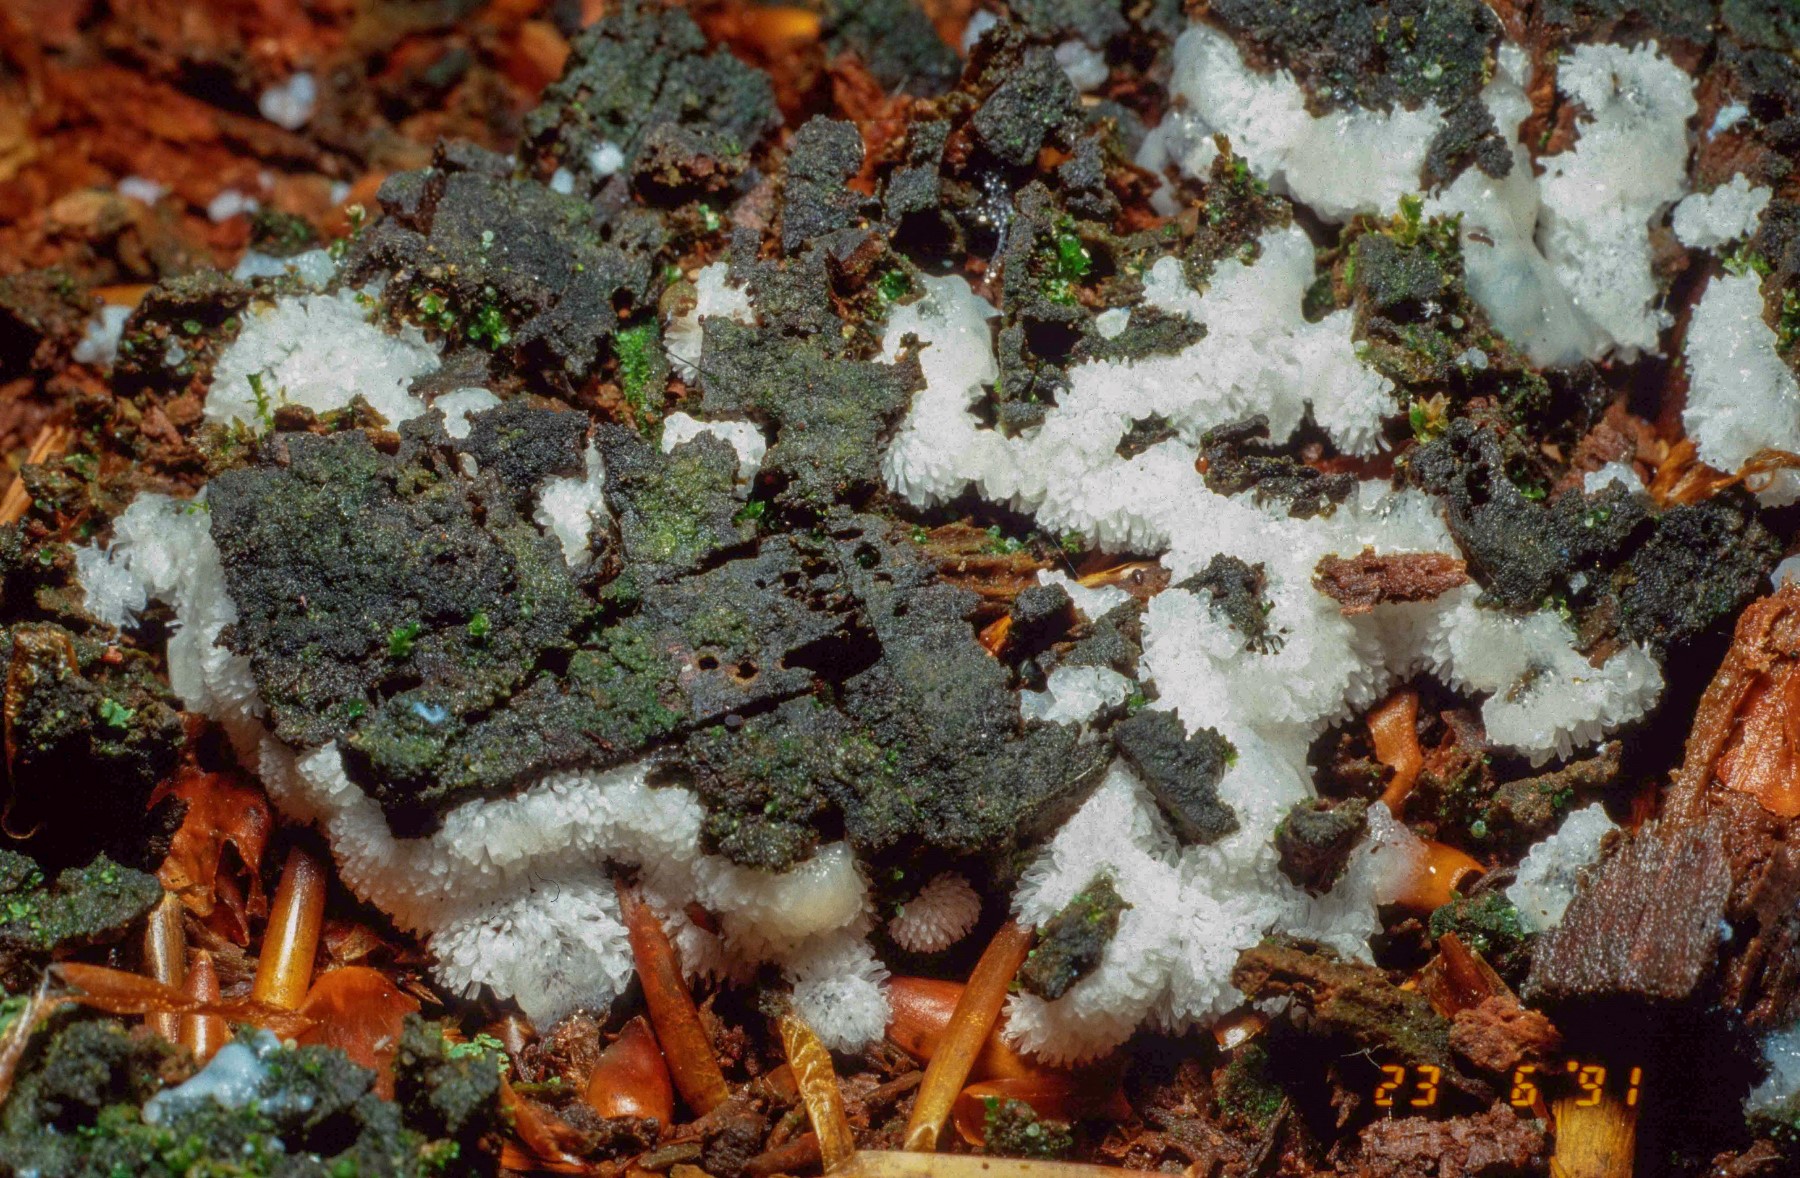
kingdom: Protozoa
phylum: Mycetozoa
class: Protosteliomycetes
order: Ceratiomyxales
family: Ceratiomyxaceae
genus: Ceratiomyxa
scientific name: Ceratiomyxa fruticulosa
